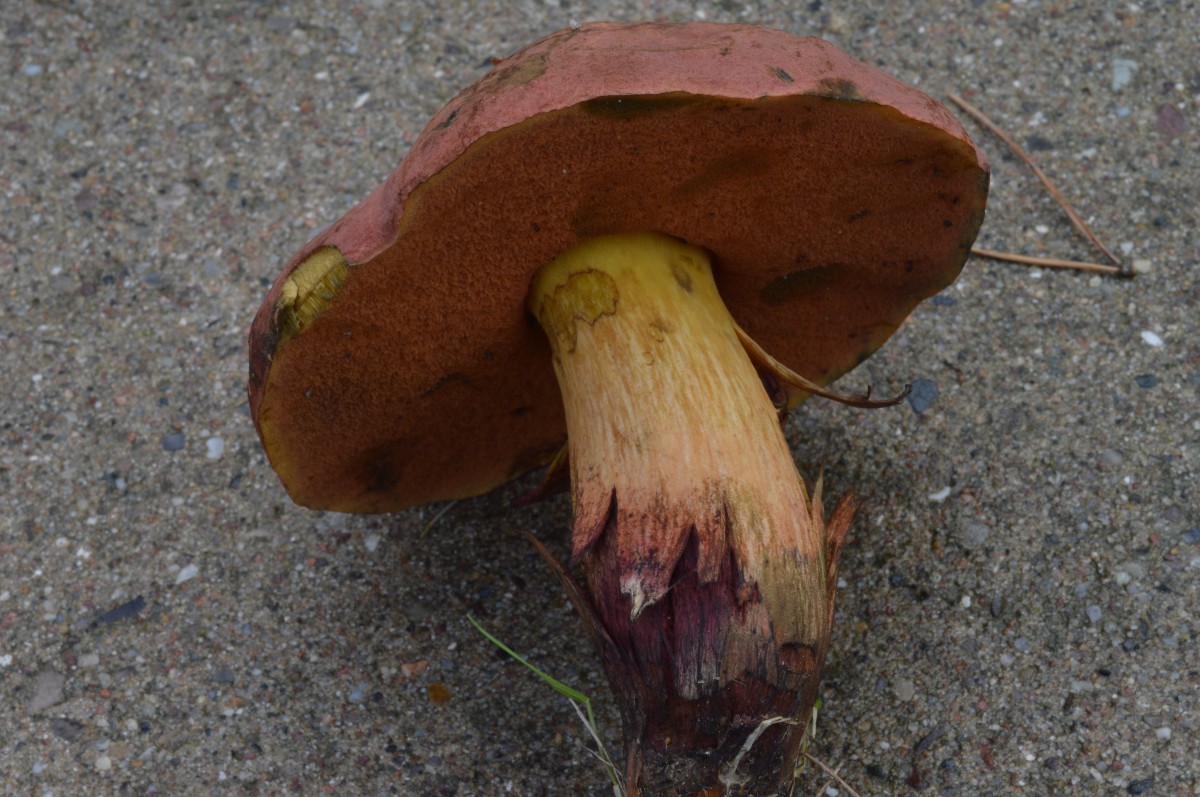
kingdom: Fungi
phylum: Basidiomycota
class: Agaricomycetes
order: Boletales
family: Boletaceae
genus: Suillellus
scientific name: Suillellus queletii
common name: glatstokket indigorørhat
